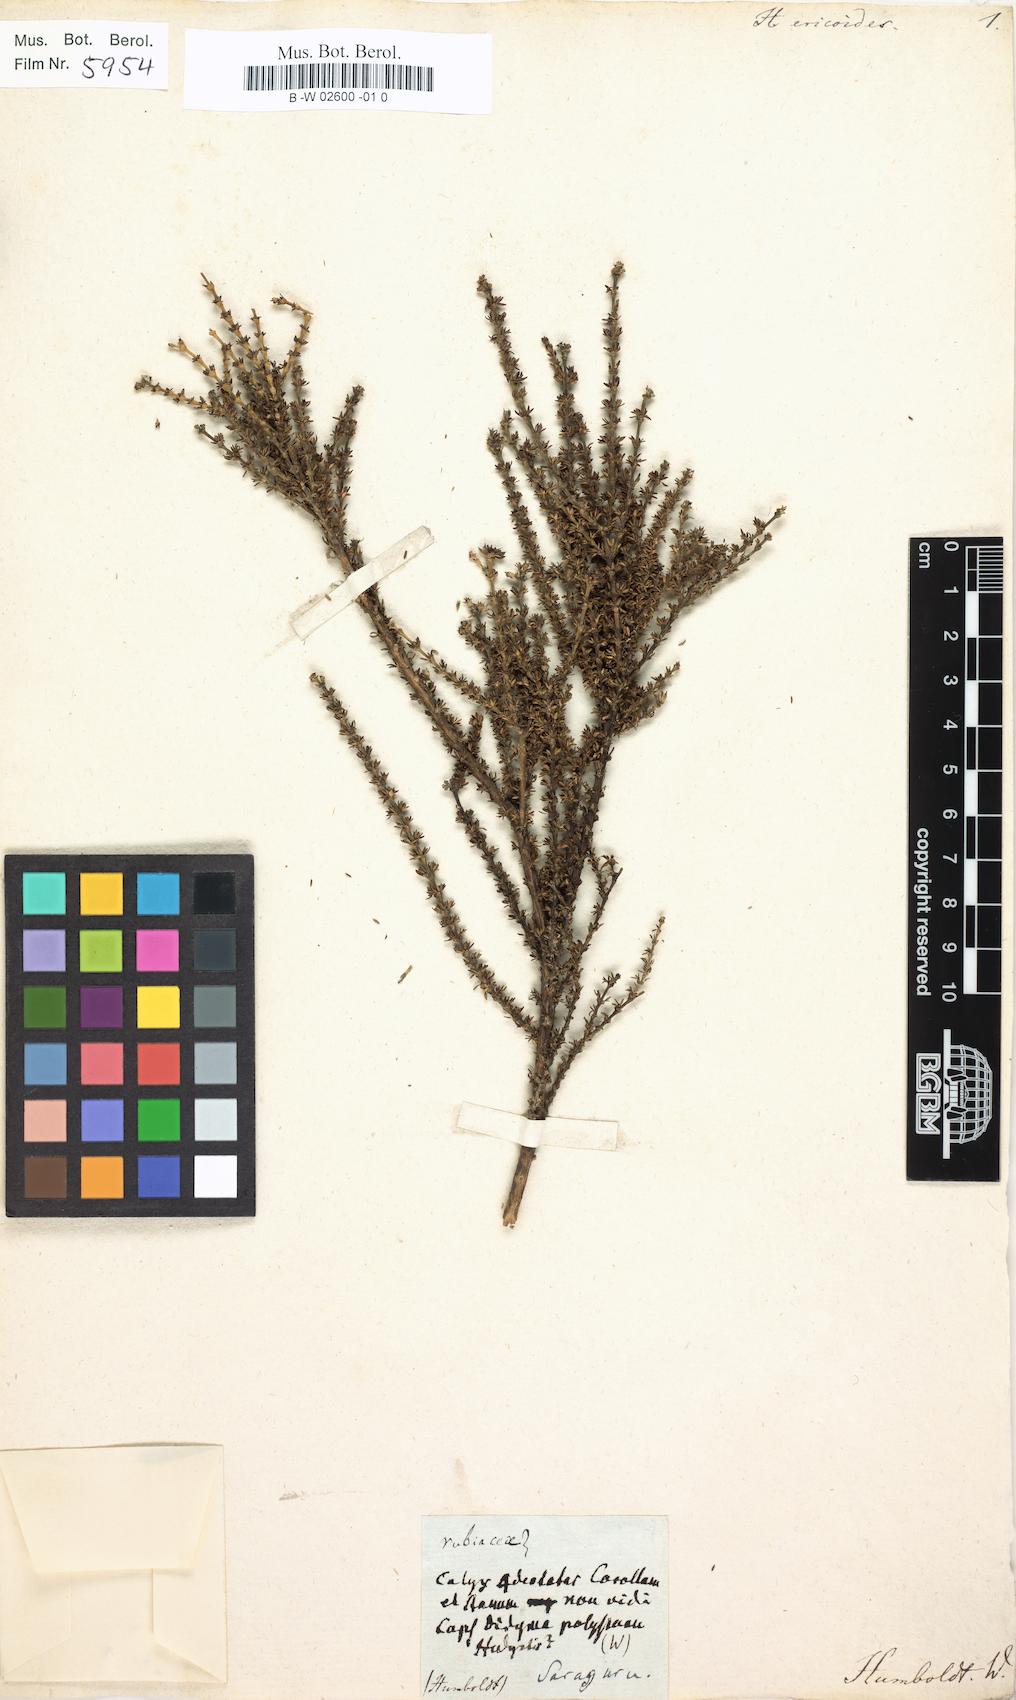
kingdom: Plantae
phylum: Tracheophyta
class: Magnoliopsida
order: Gentianales
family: Rubiaceae
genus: Arcytophyllum
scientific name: Arcytophyllum ericoides
